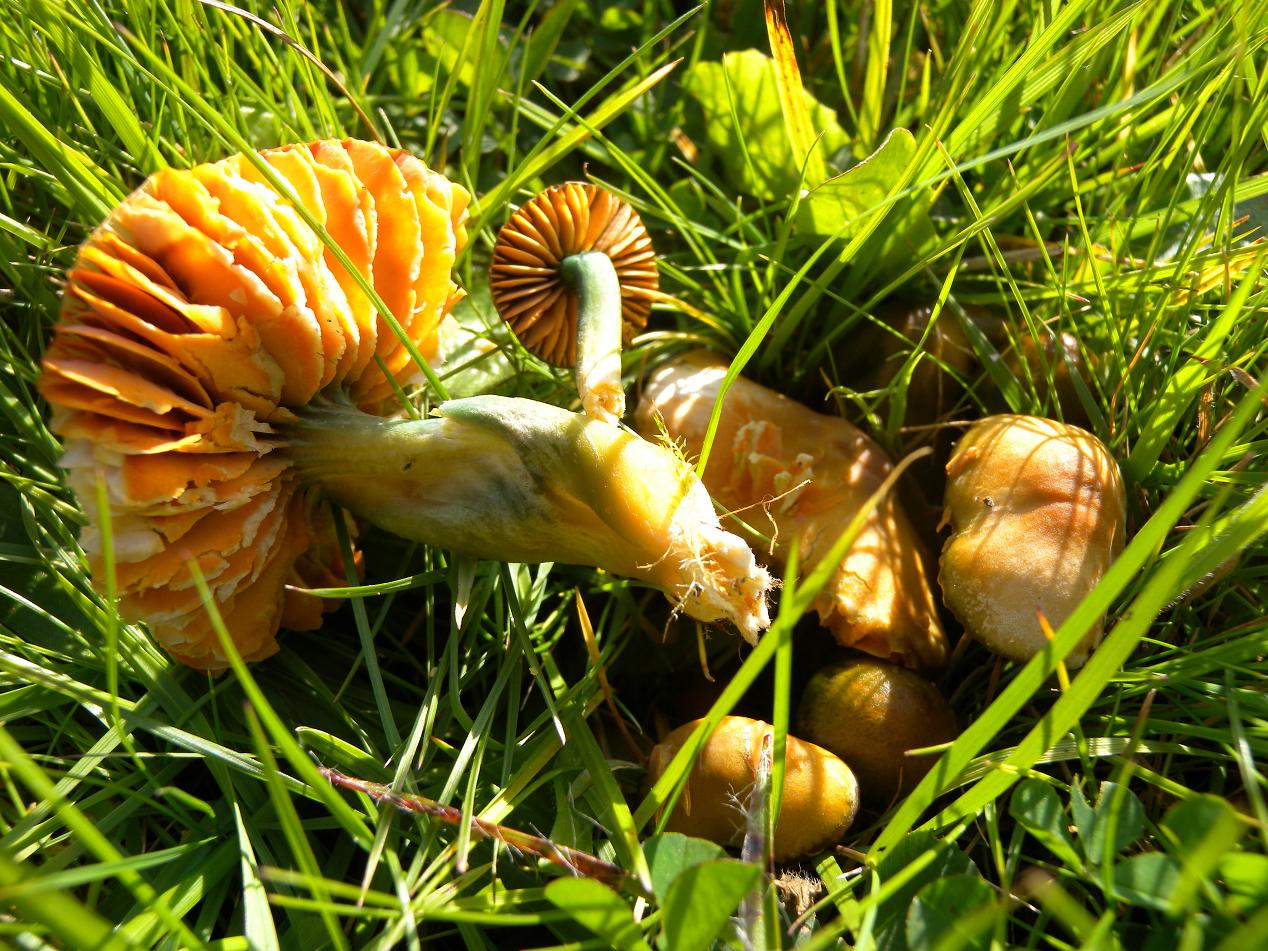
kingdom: Fungi
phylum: Basidiomycota
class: Agaricomycetes
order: Agaricales
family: Hygrophoraceae
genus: Gliophorus
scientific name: Gliophorus psittacinus
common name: papegøje-vokshat
